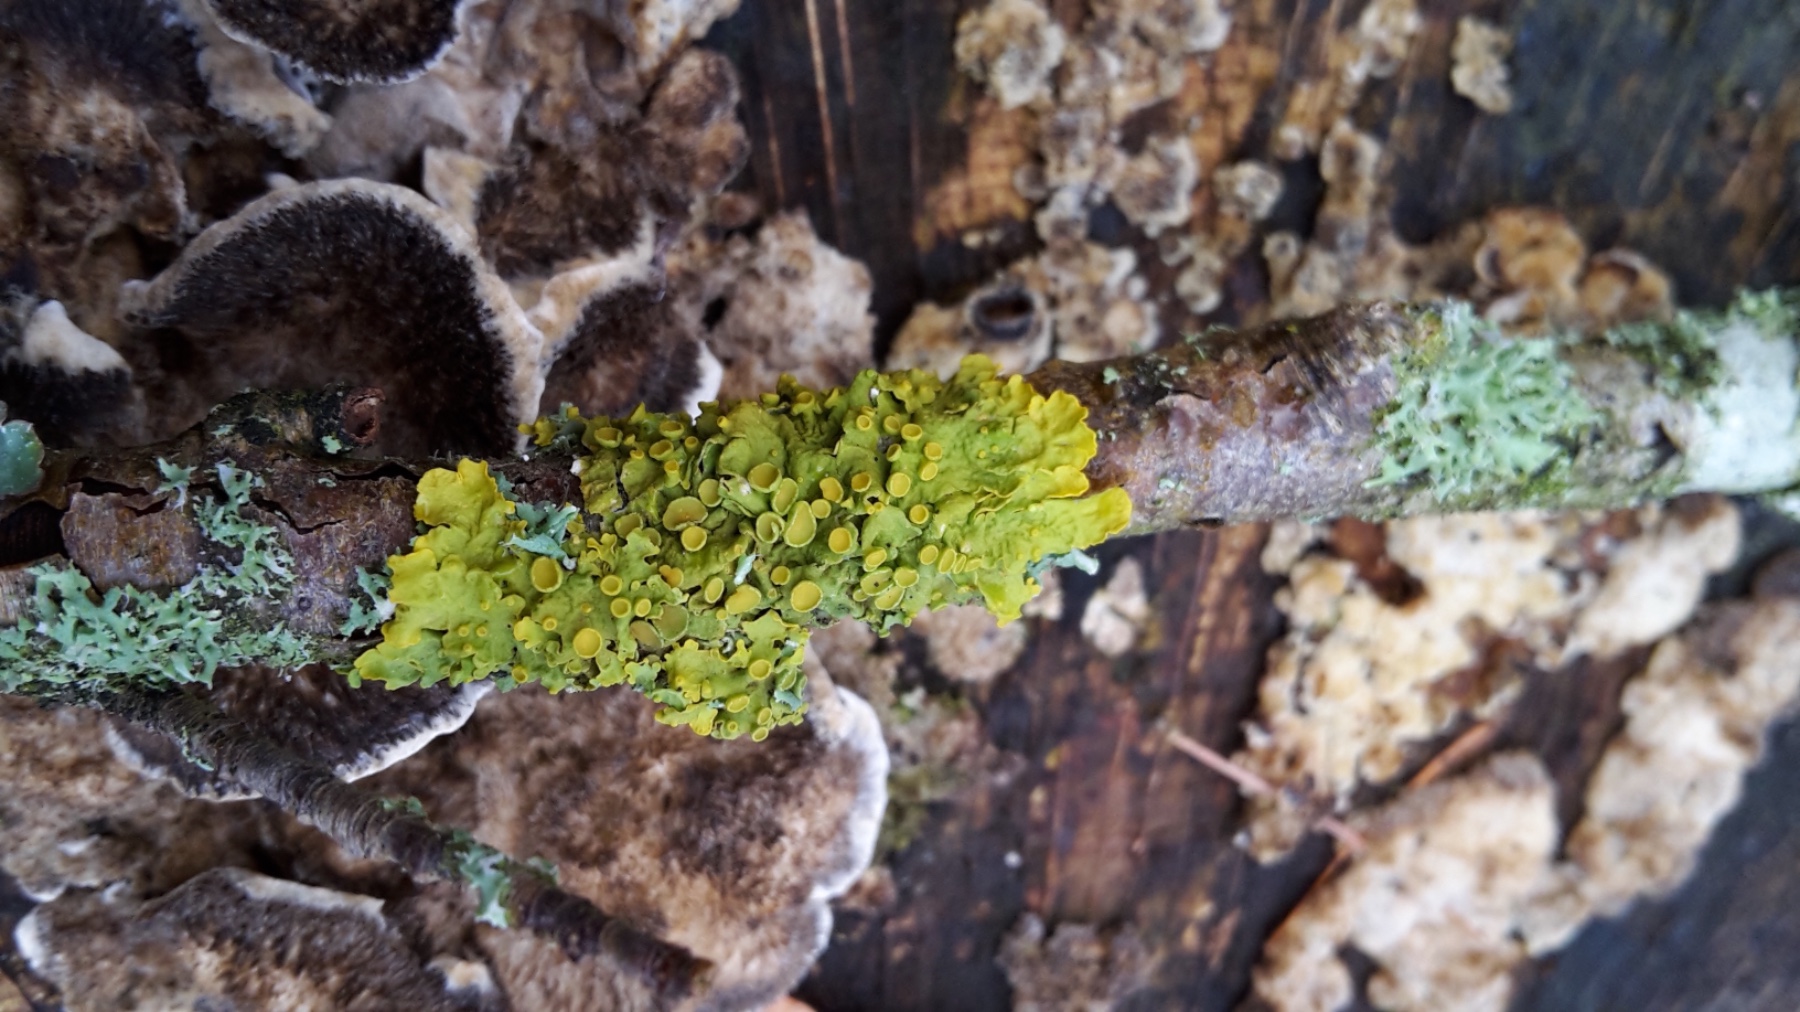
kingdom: Fungi
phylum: Ascomycota
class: Lecanoromycetes
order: Teloschistales
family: Teloschistaceae
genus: Xanthoria
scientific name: Xanthoria parietina
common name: almindelig væggelav
